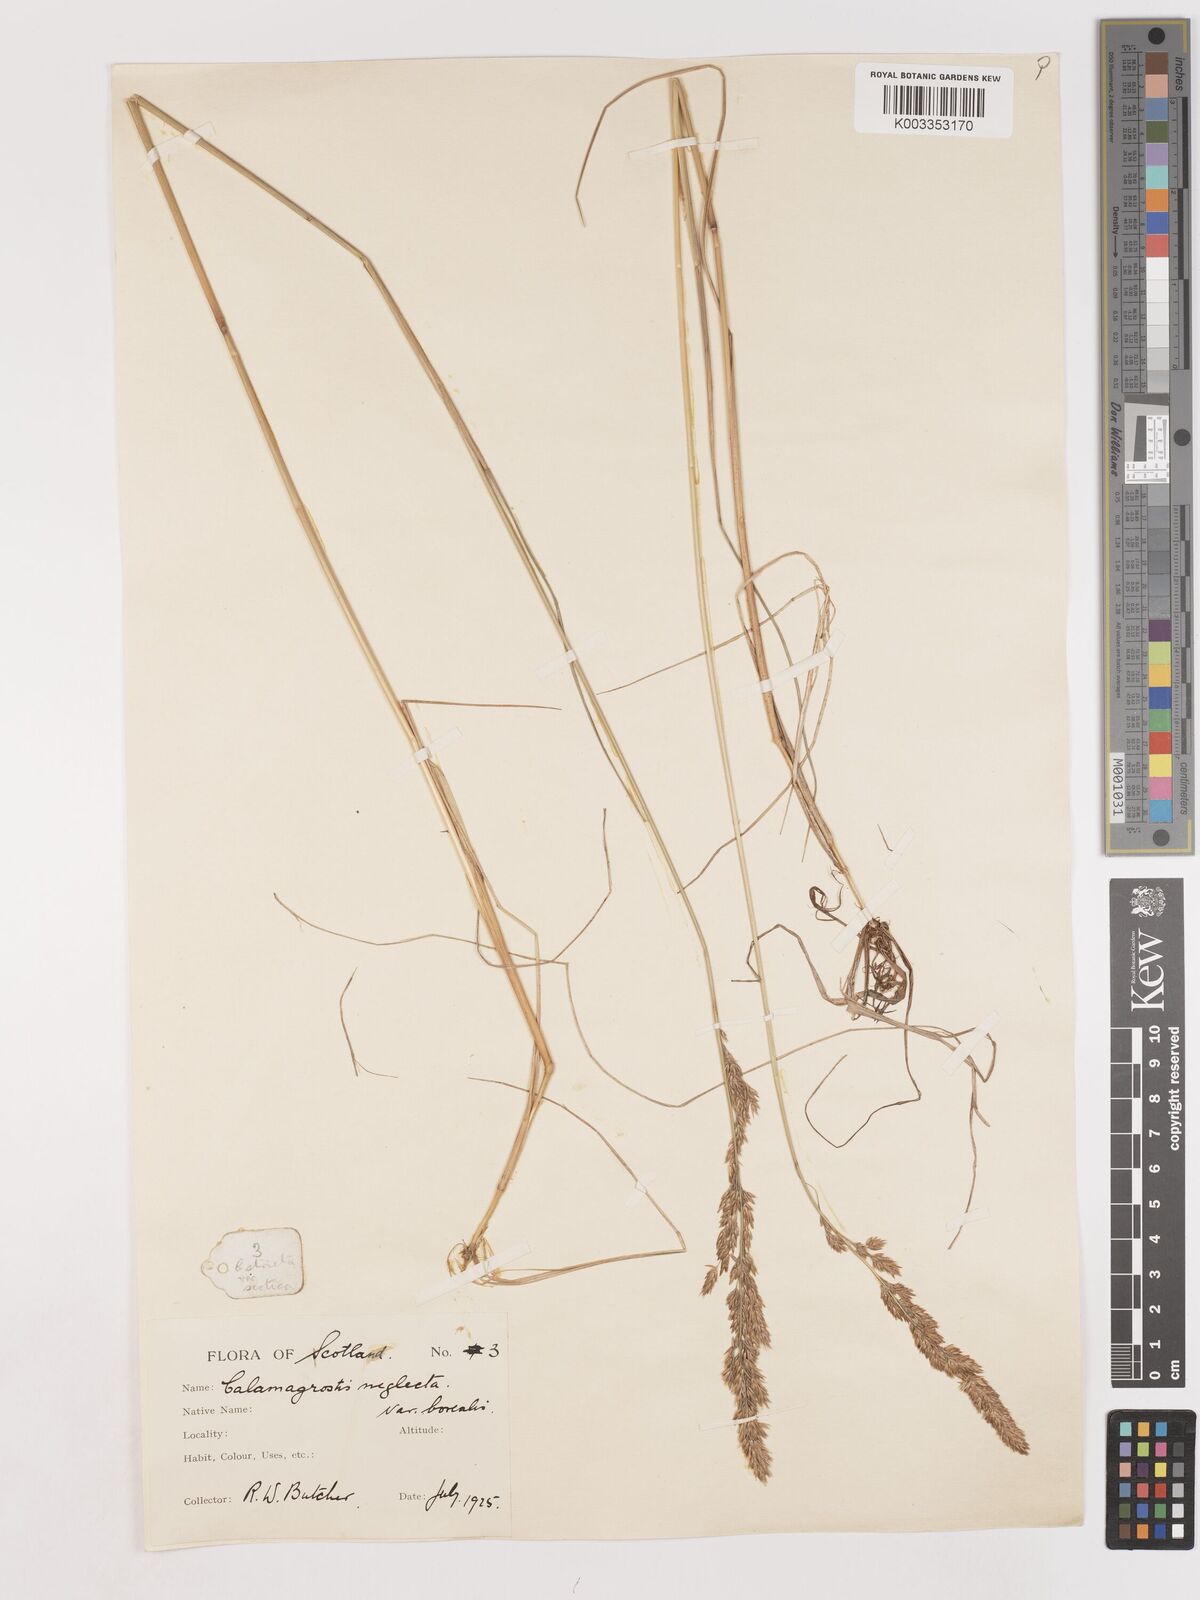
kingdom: Plantae
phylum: Tracheophyta
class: Liliopsida
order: Poales
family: Poaceae
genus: Cinnagrostis
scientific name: Cinnagrostis recta
